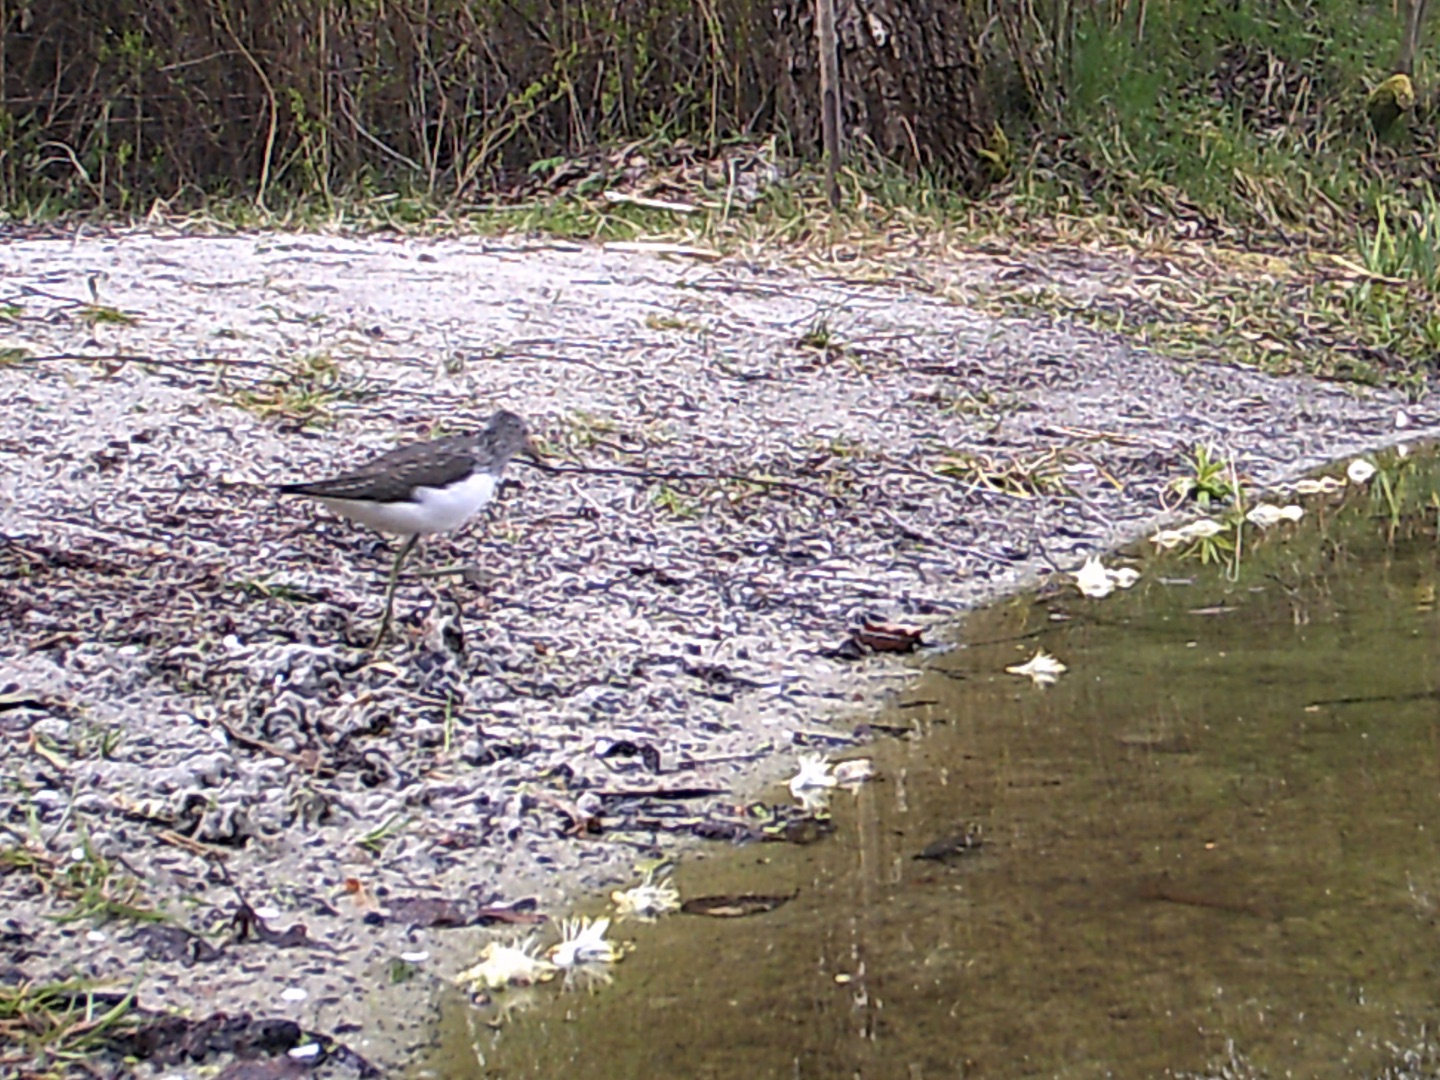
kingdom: Animalia
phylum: Chordata
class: Aves
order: Charadriiformes
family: Scolopacidae
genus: Tringa
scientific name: Tringa ochropus
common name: Svaleklire
